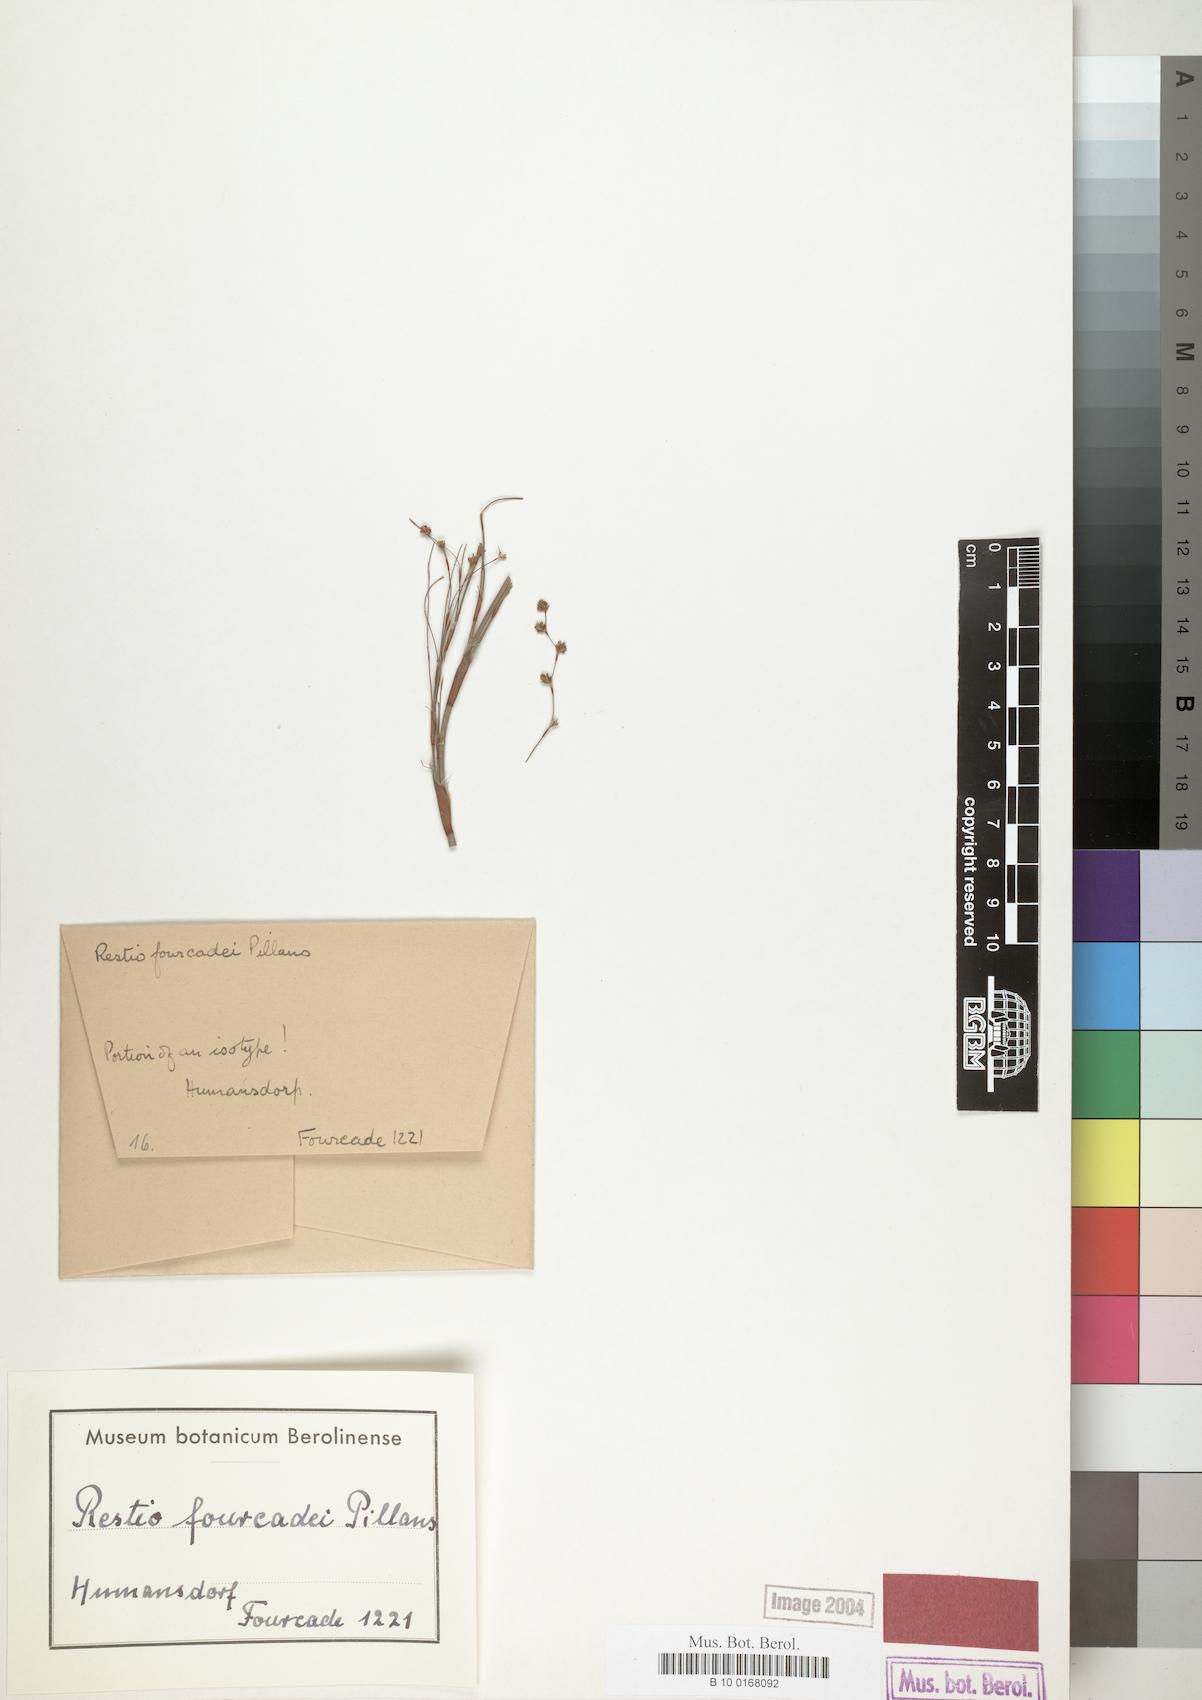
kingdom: Plantae
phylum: Tracheophyta
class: Liliopsida
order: Poales
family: Restionaceae
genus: Restio
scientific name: Restio fourcadei
